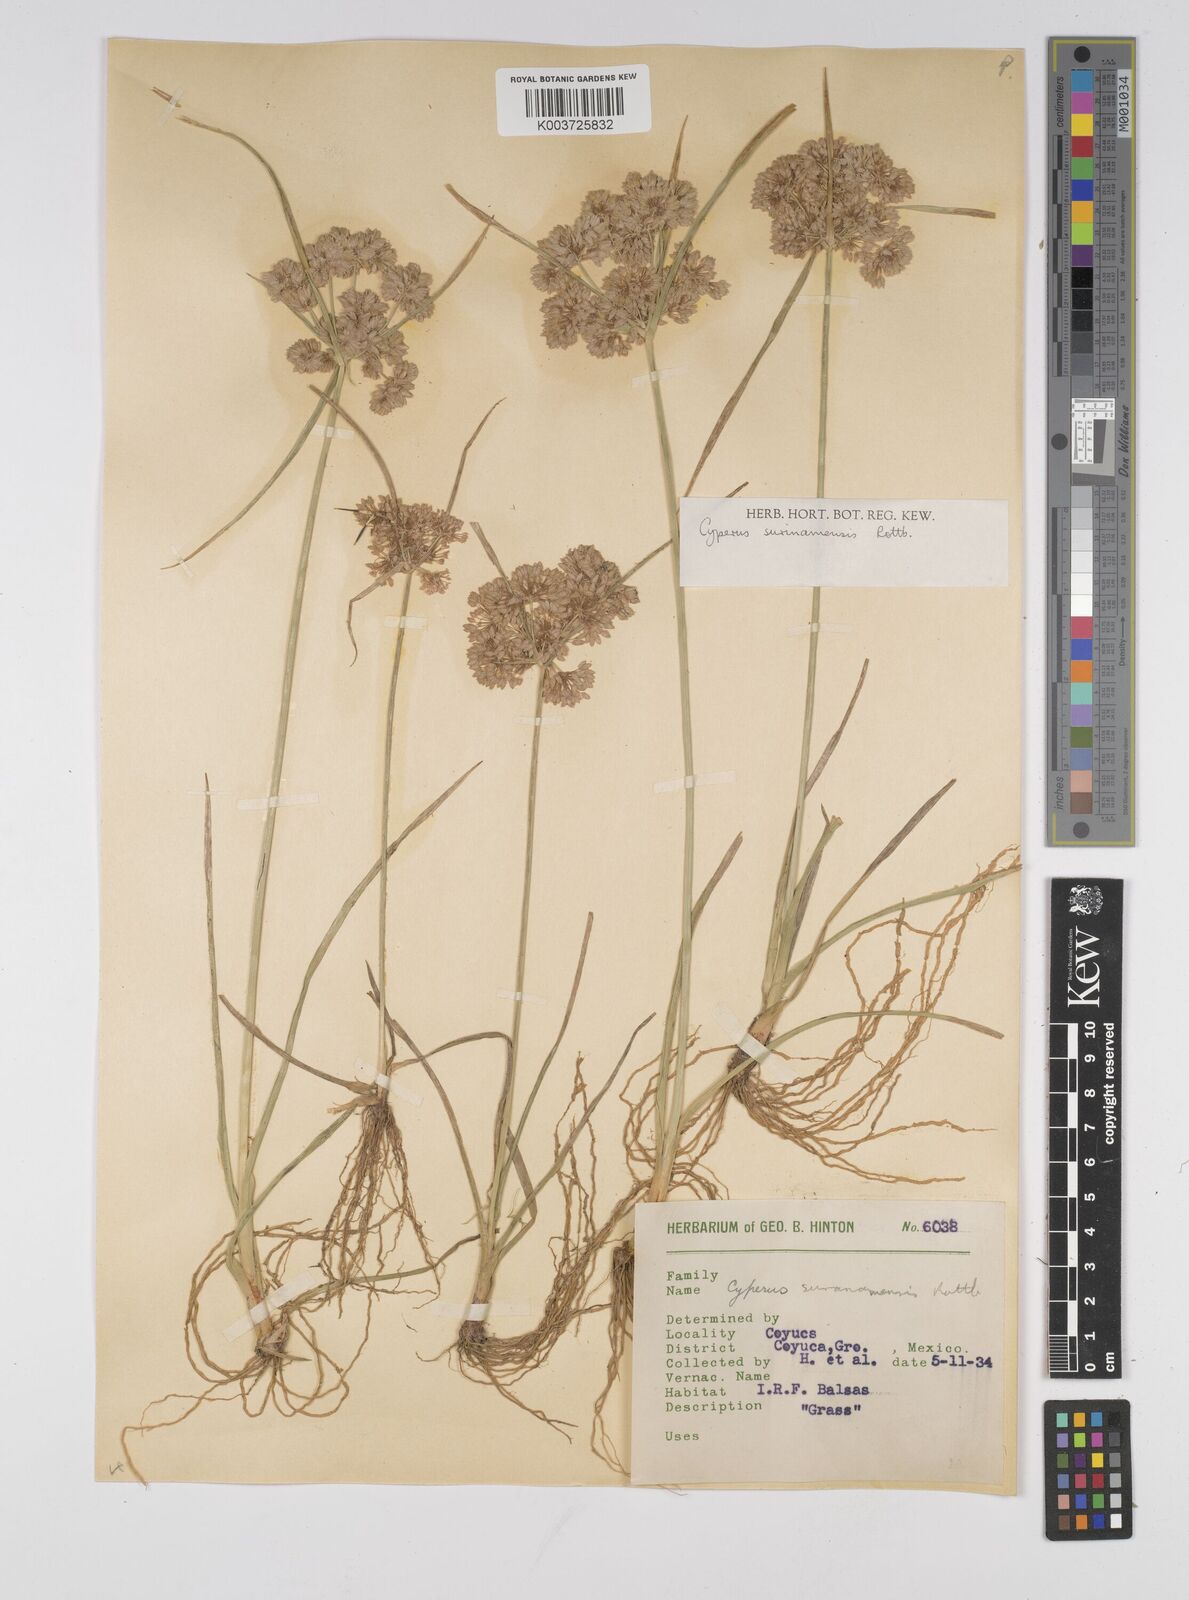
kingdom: Plantae
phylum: Tracheophyta
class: Liliopsida
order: Poales
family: Cyperaceae
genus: Cyperus
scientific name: Cyperus surinamensis
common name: Tropical flat sedge
